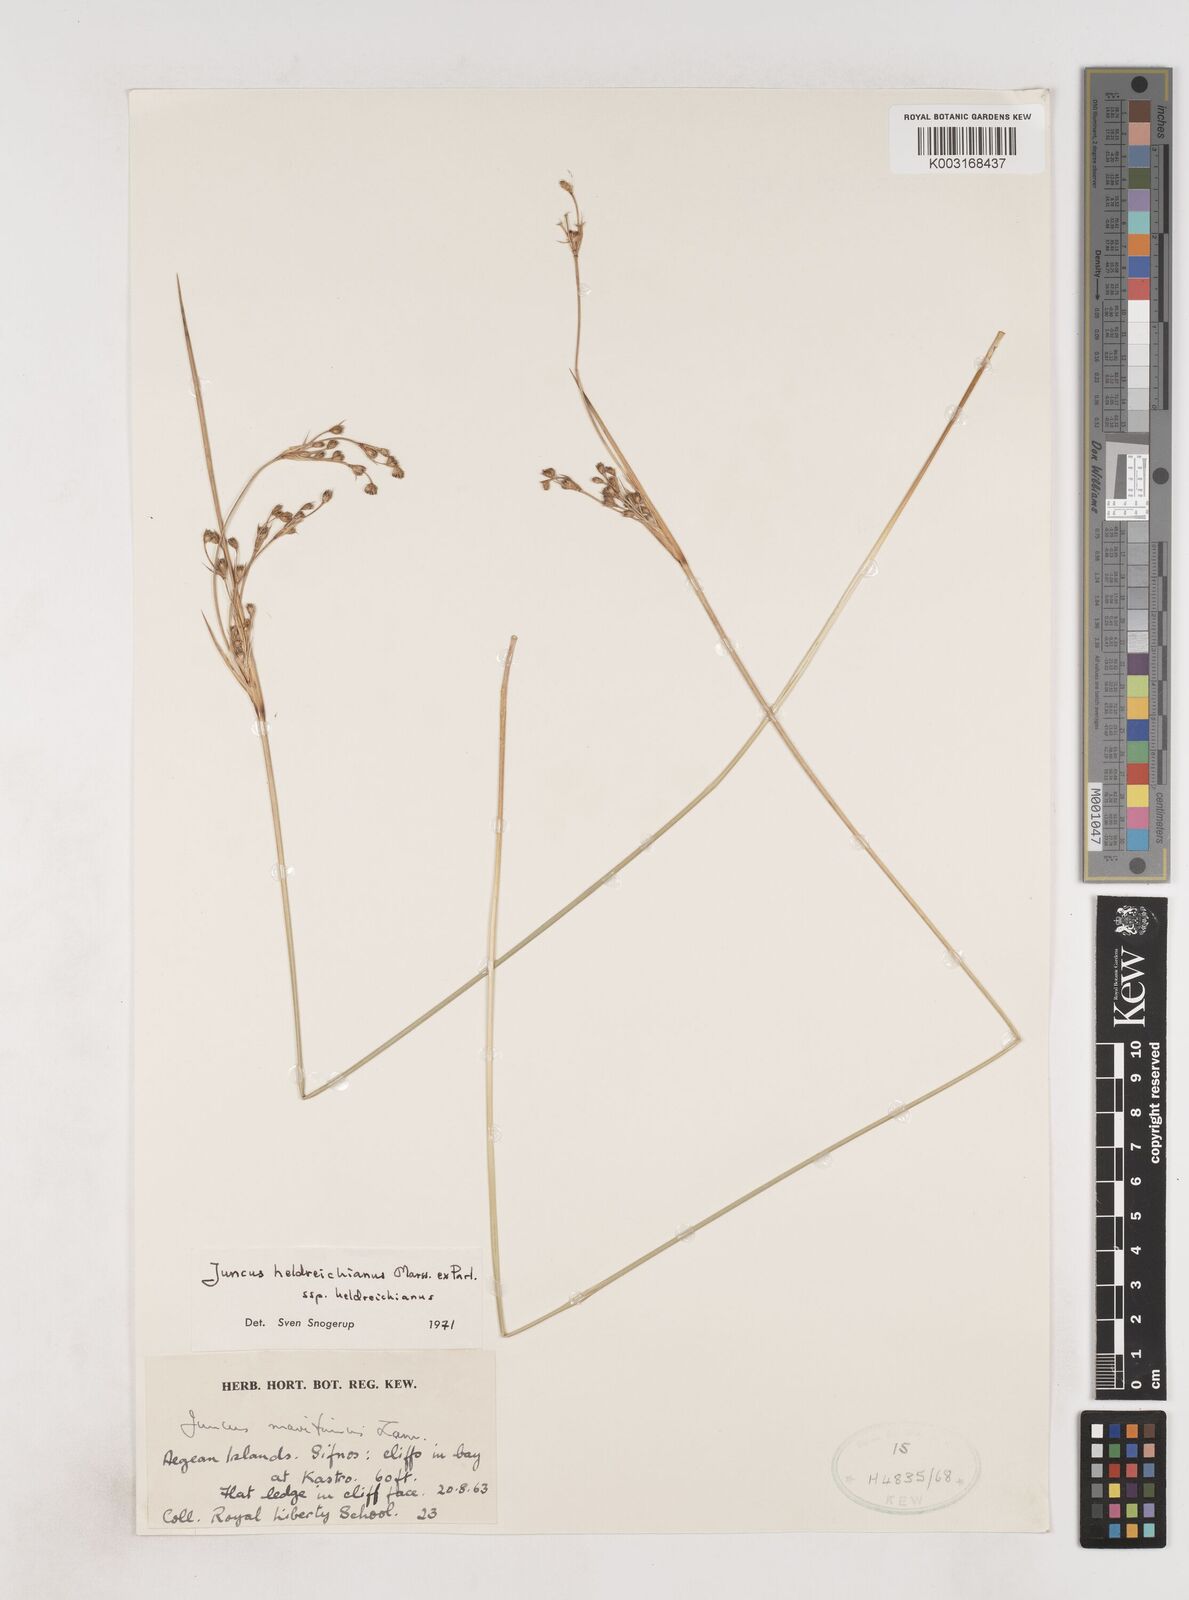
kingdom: Plantae
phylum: Tracheophyta
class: Liliopsida
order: Poales
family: Juncaceae
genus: Juncus
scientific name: Juncus heldreichianus
